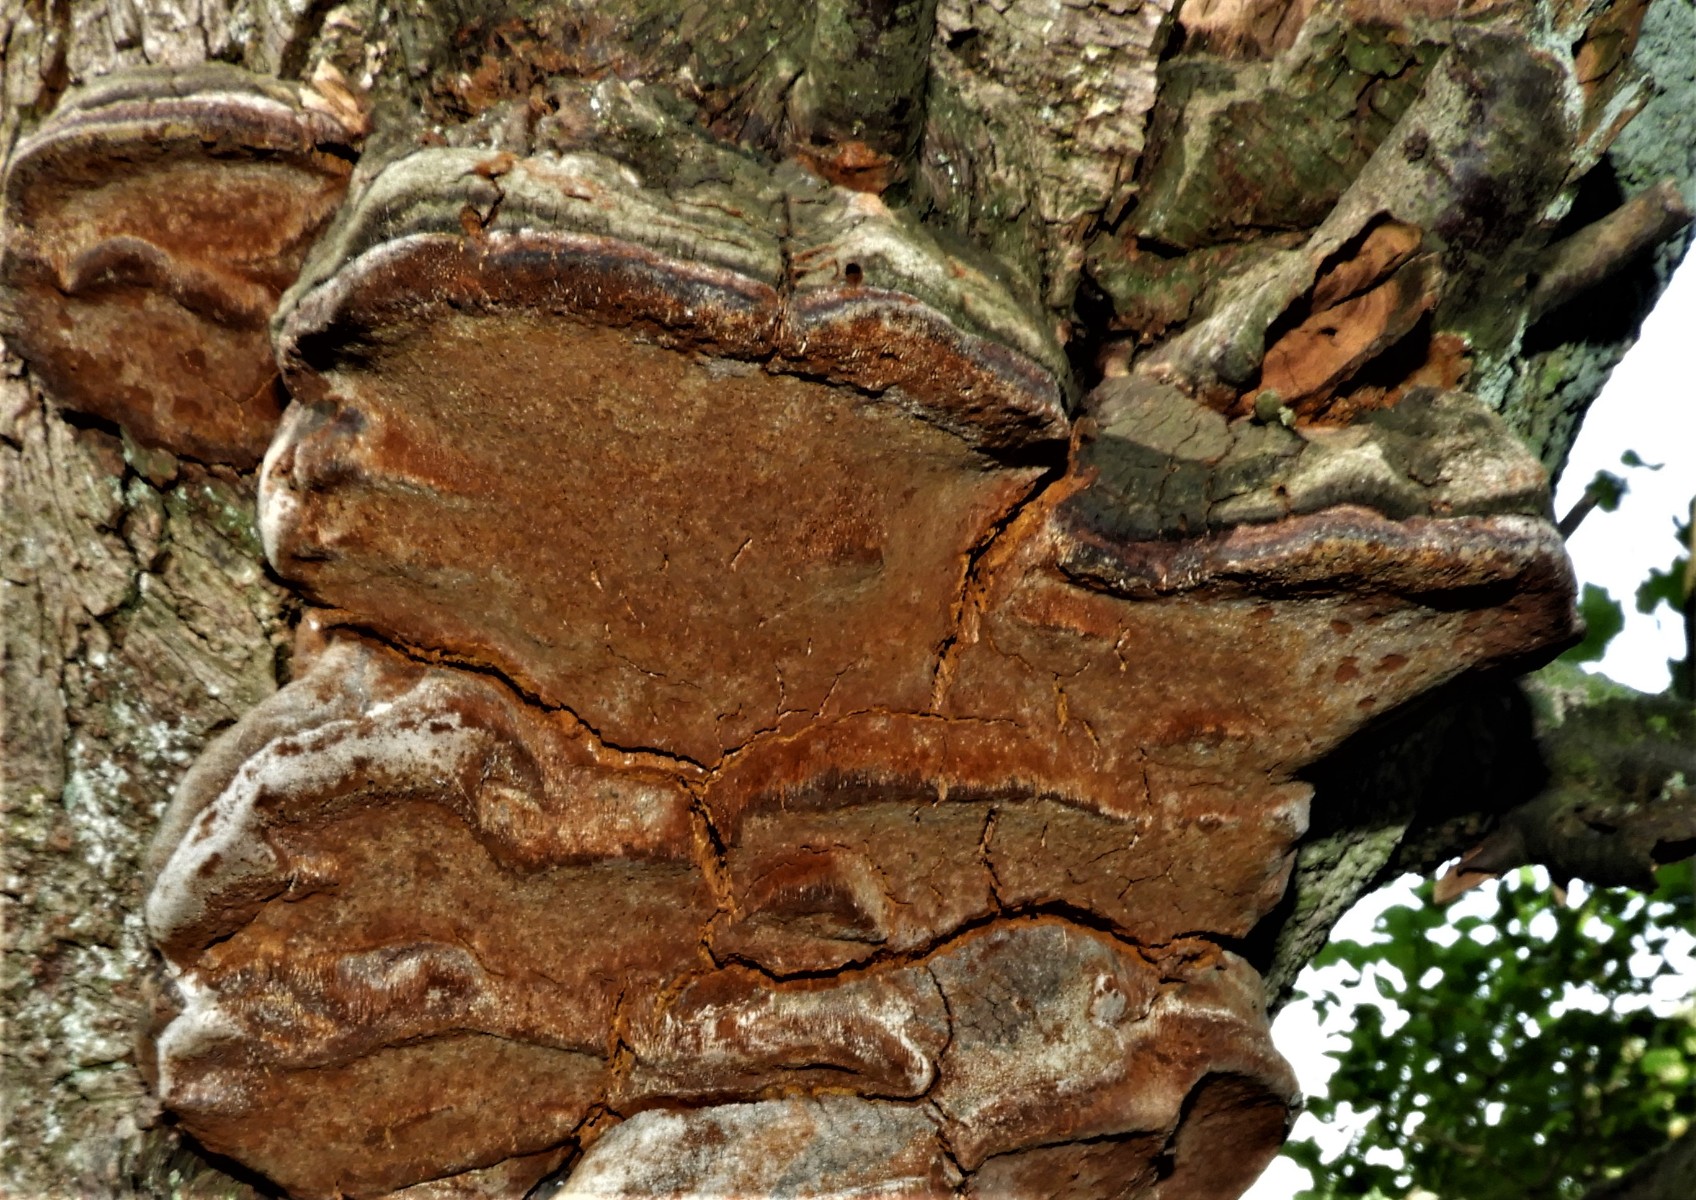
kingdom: Fungi
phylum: Basidiomycota
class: Agaricomycetes
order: Hymenochaetales
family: Hymenochaetaceae
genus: Phellinus
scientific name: Phellinus pomaceus
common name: blomme-ildporesvamp
